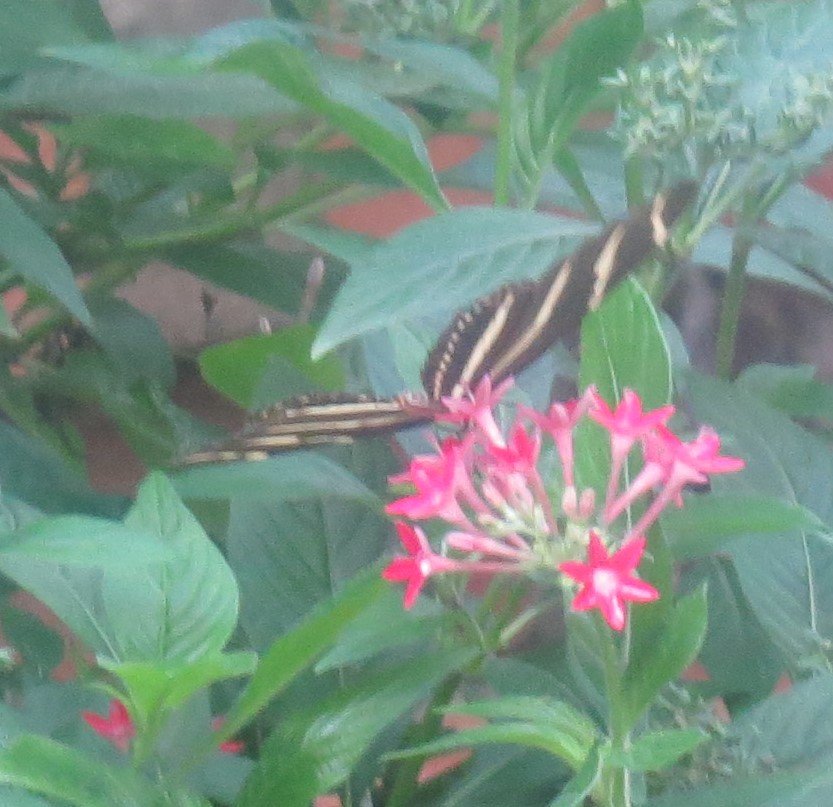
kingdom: Animalia
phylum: Arthropoda
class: Insecta
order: Lepidoptera
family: Nymphalidae
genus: Heliconius
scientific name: Heliconius charithonia
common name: Zebra Longwing
